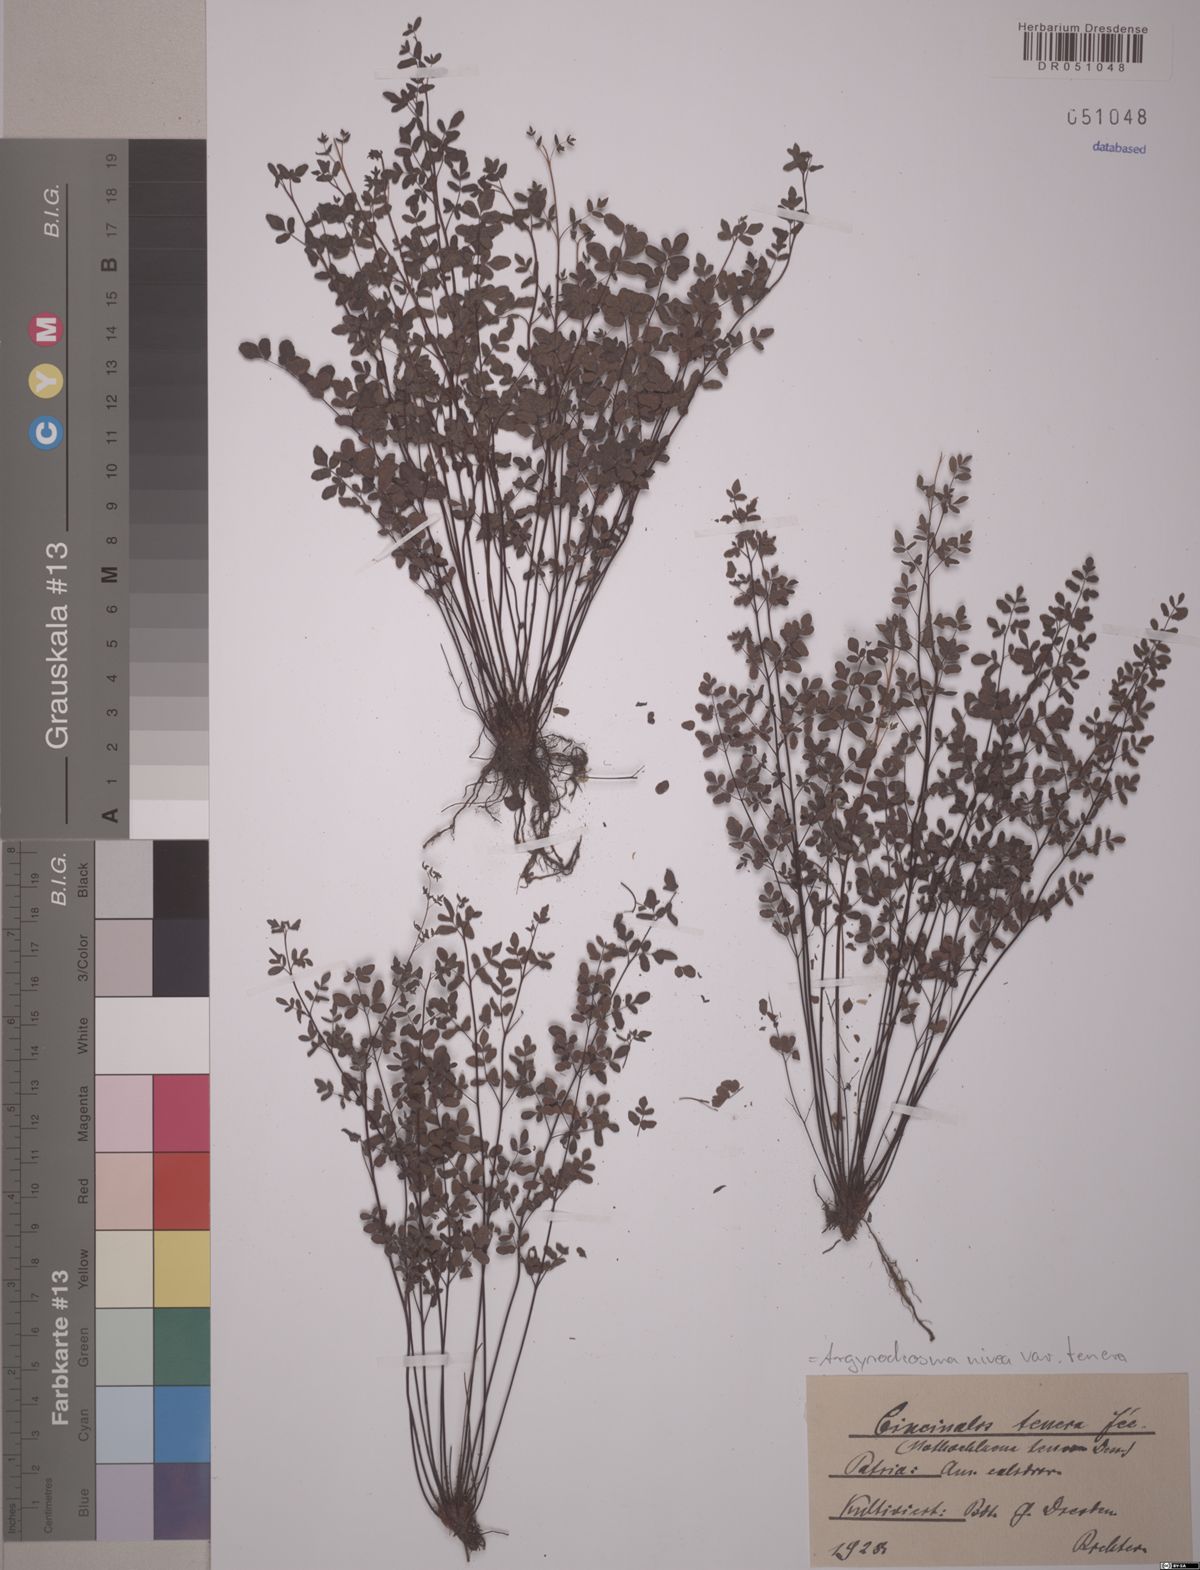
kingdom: Plantae
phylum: Tracheophyta
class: Polypodiopsida
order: Polypodiales
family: Pteridaceae
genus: Argyrochosma
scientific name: Argyrochosma tenera
